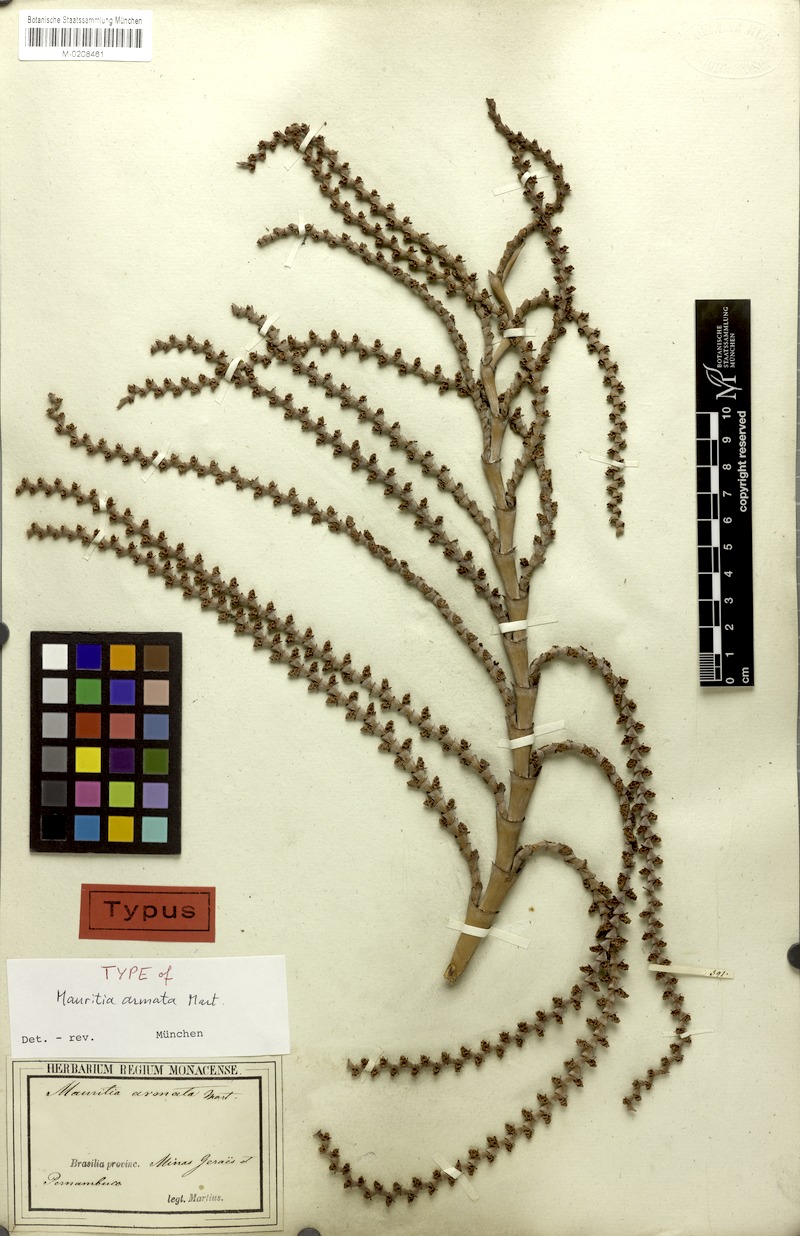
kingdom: Plantae
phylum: Tracheophyta
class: Liliopsida
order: Arecales
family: Arecaceae
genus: Mauritiella
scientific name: Mauritiella armata
